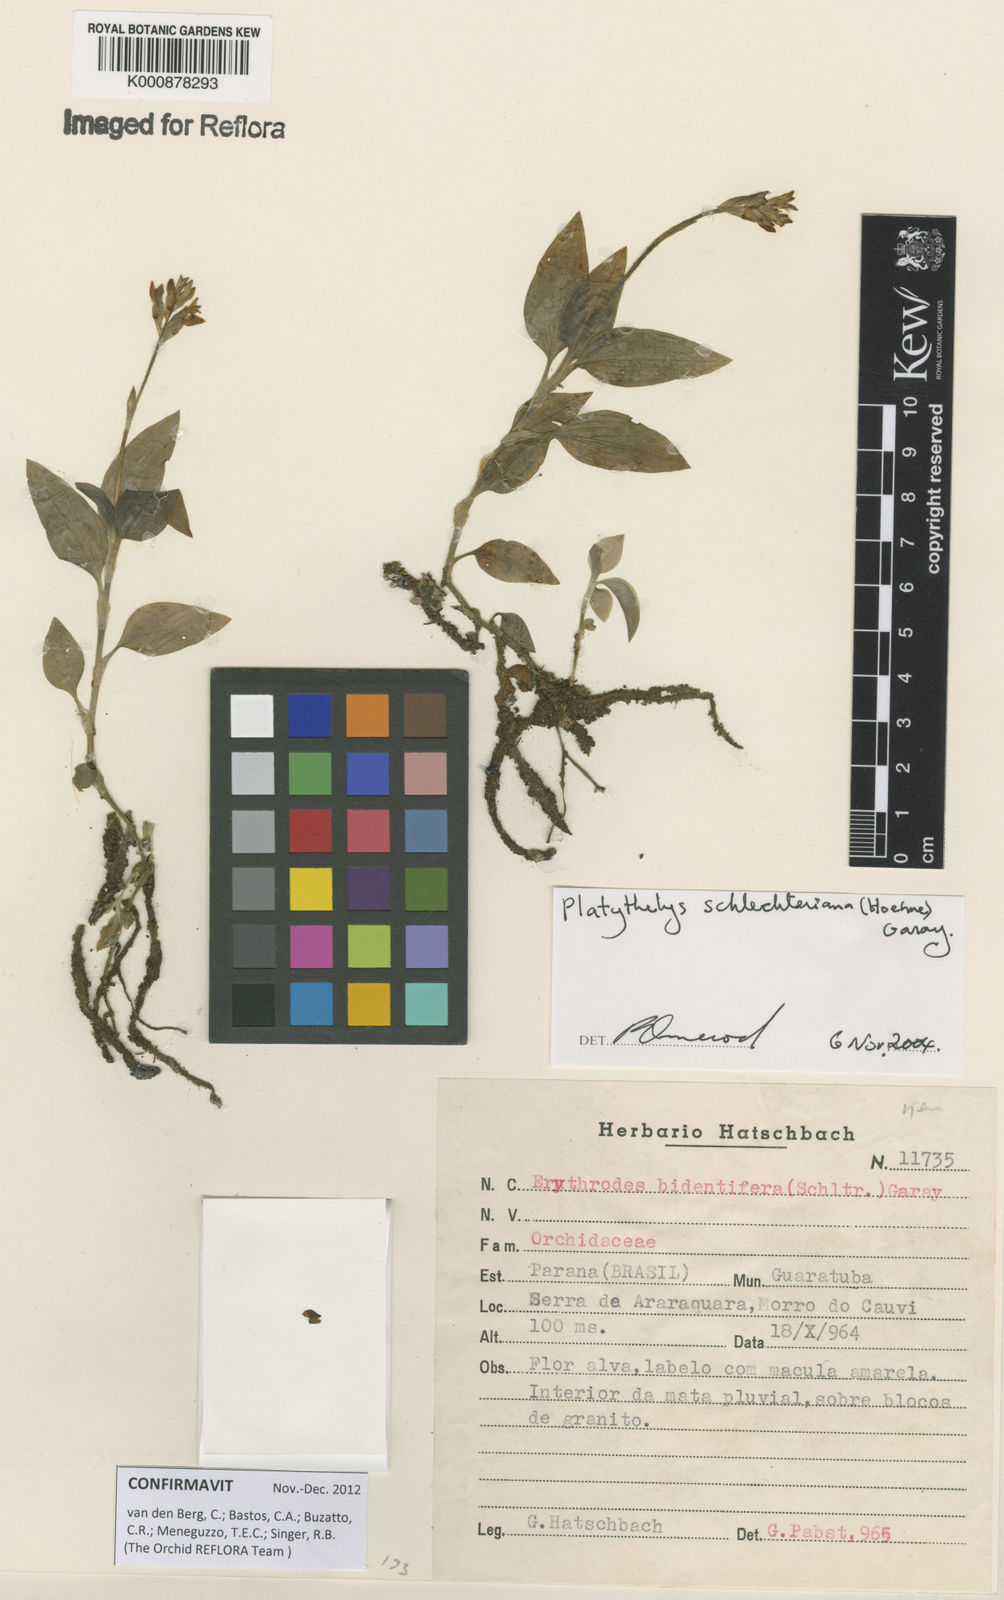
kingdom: Plantae
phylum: Tracheophyta
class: Liliopsida
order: Asparagales
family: Orchidaceae
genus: Aspidogyne
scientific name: Aspidogyne schlechteriana
